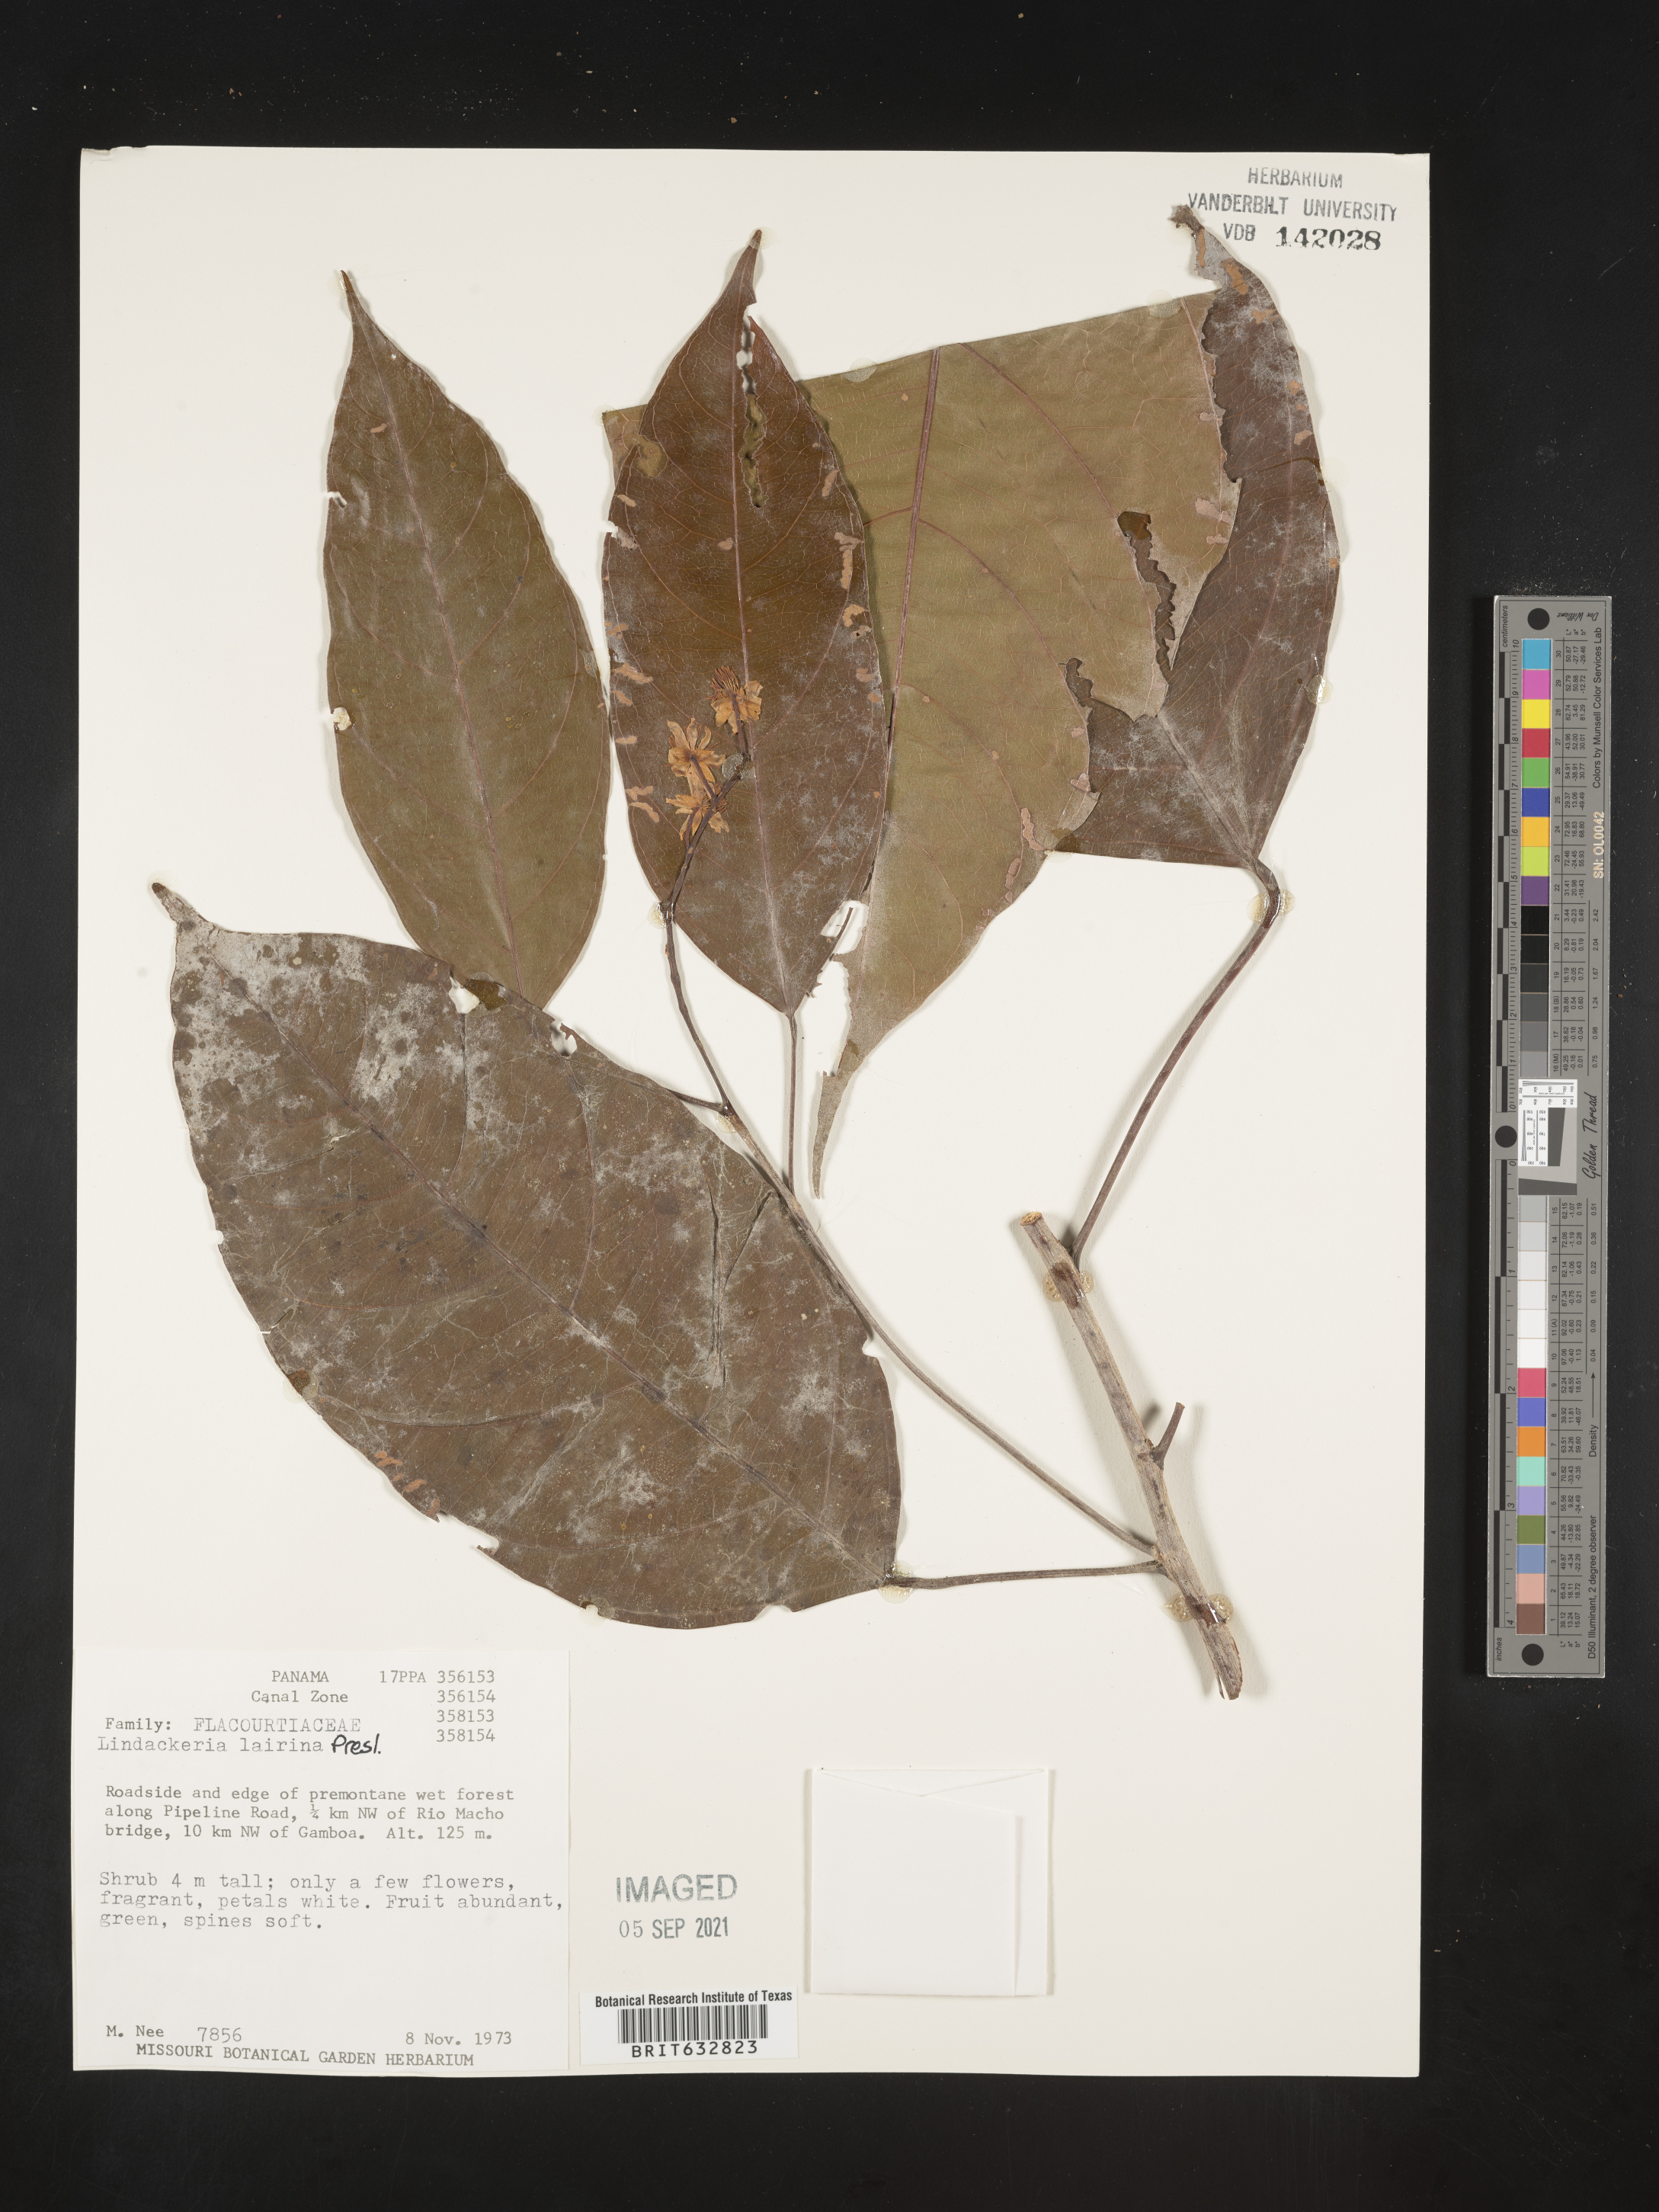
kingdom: Plantae
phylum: Tracheophyta
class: Magnoliopsida
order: Malpighiales
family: Achariaceae
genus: Lindackeria
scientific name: Lindackeria laurina
